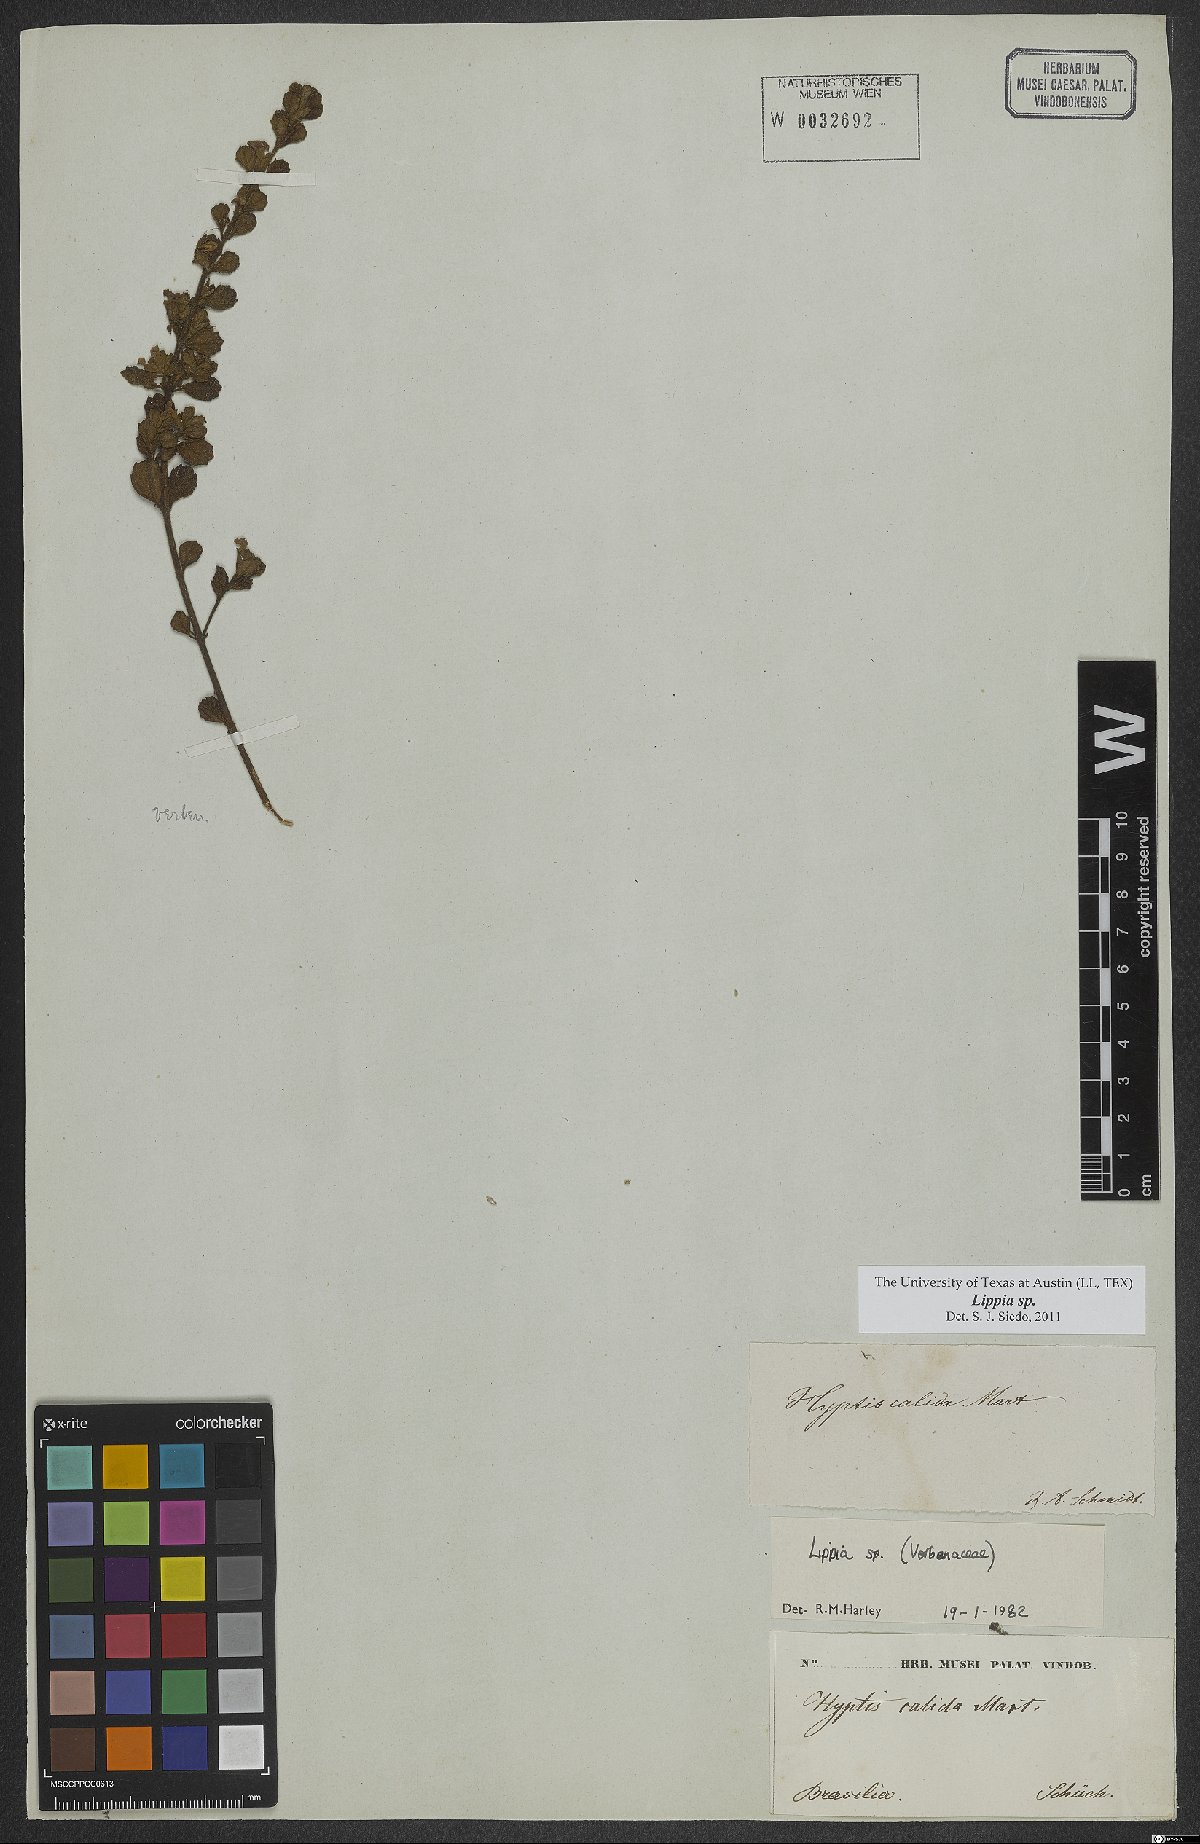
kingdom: Plantae
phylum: Tracheophyta
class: Magnoliopsida
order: Lamiales
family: Verbenaceae
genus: Lippia
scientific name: Lippia
